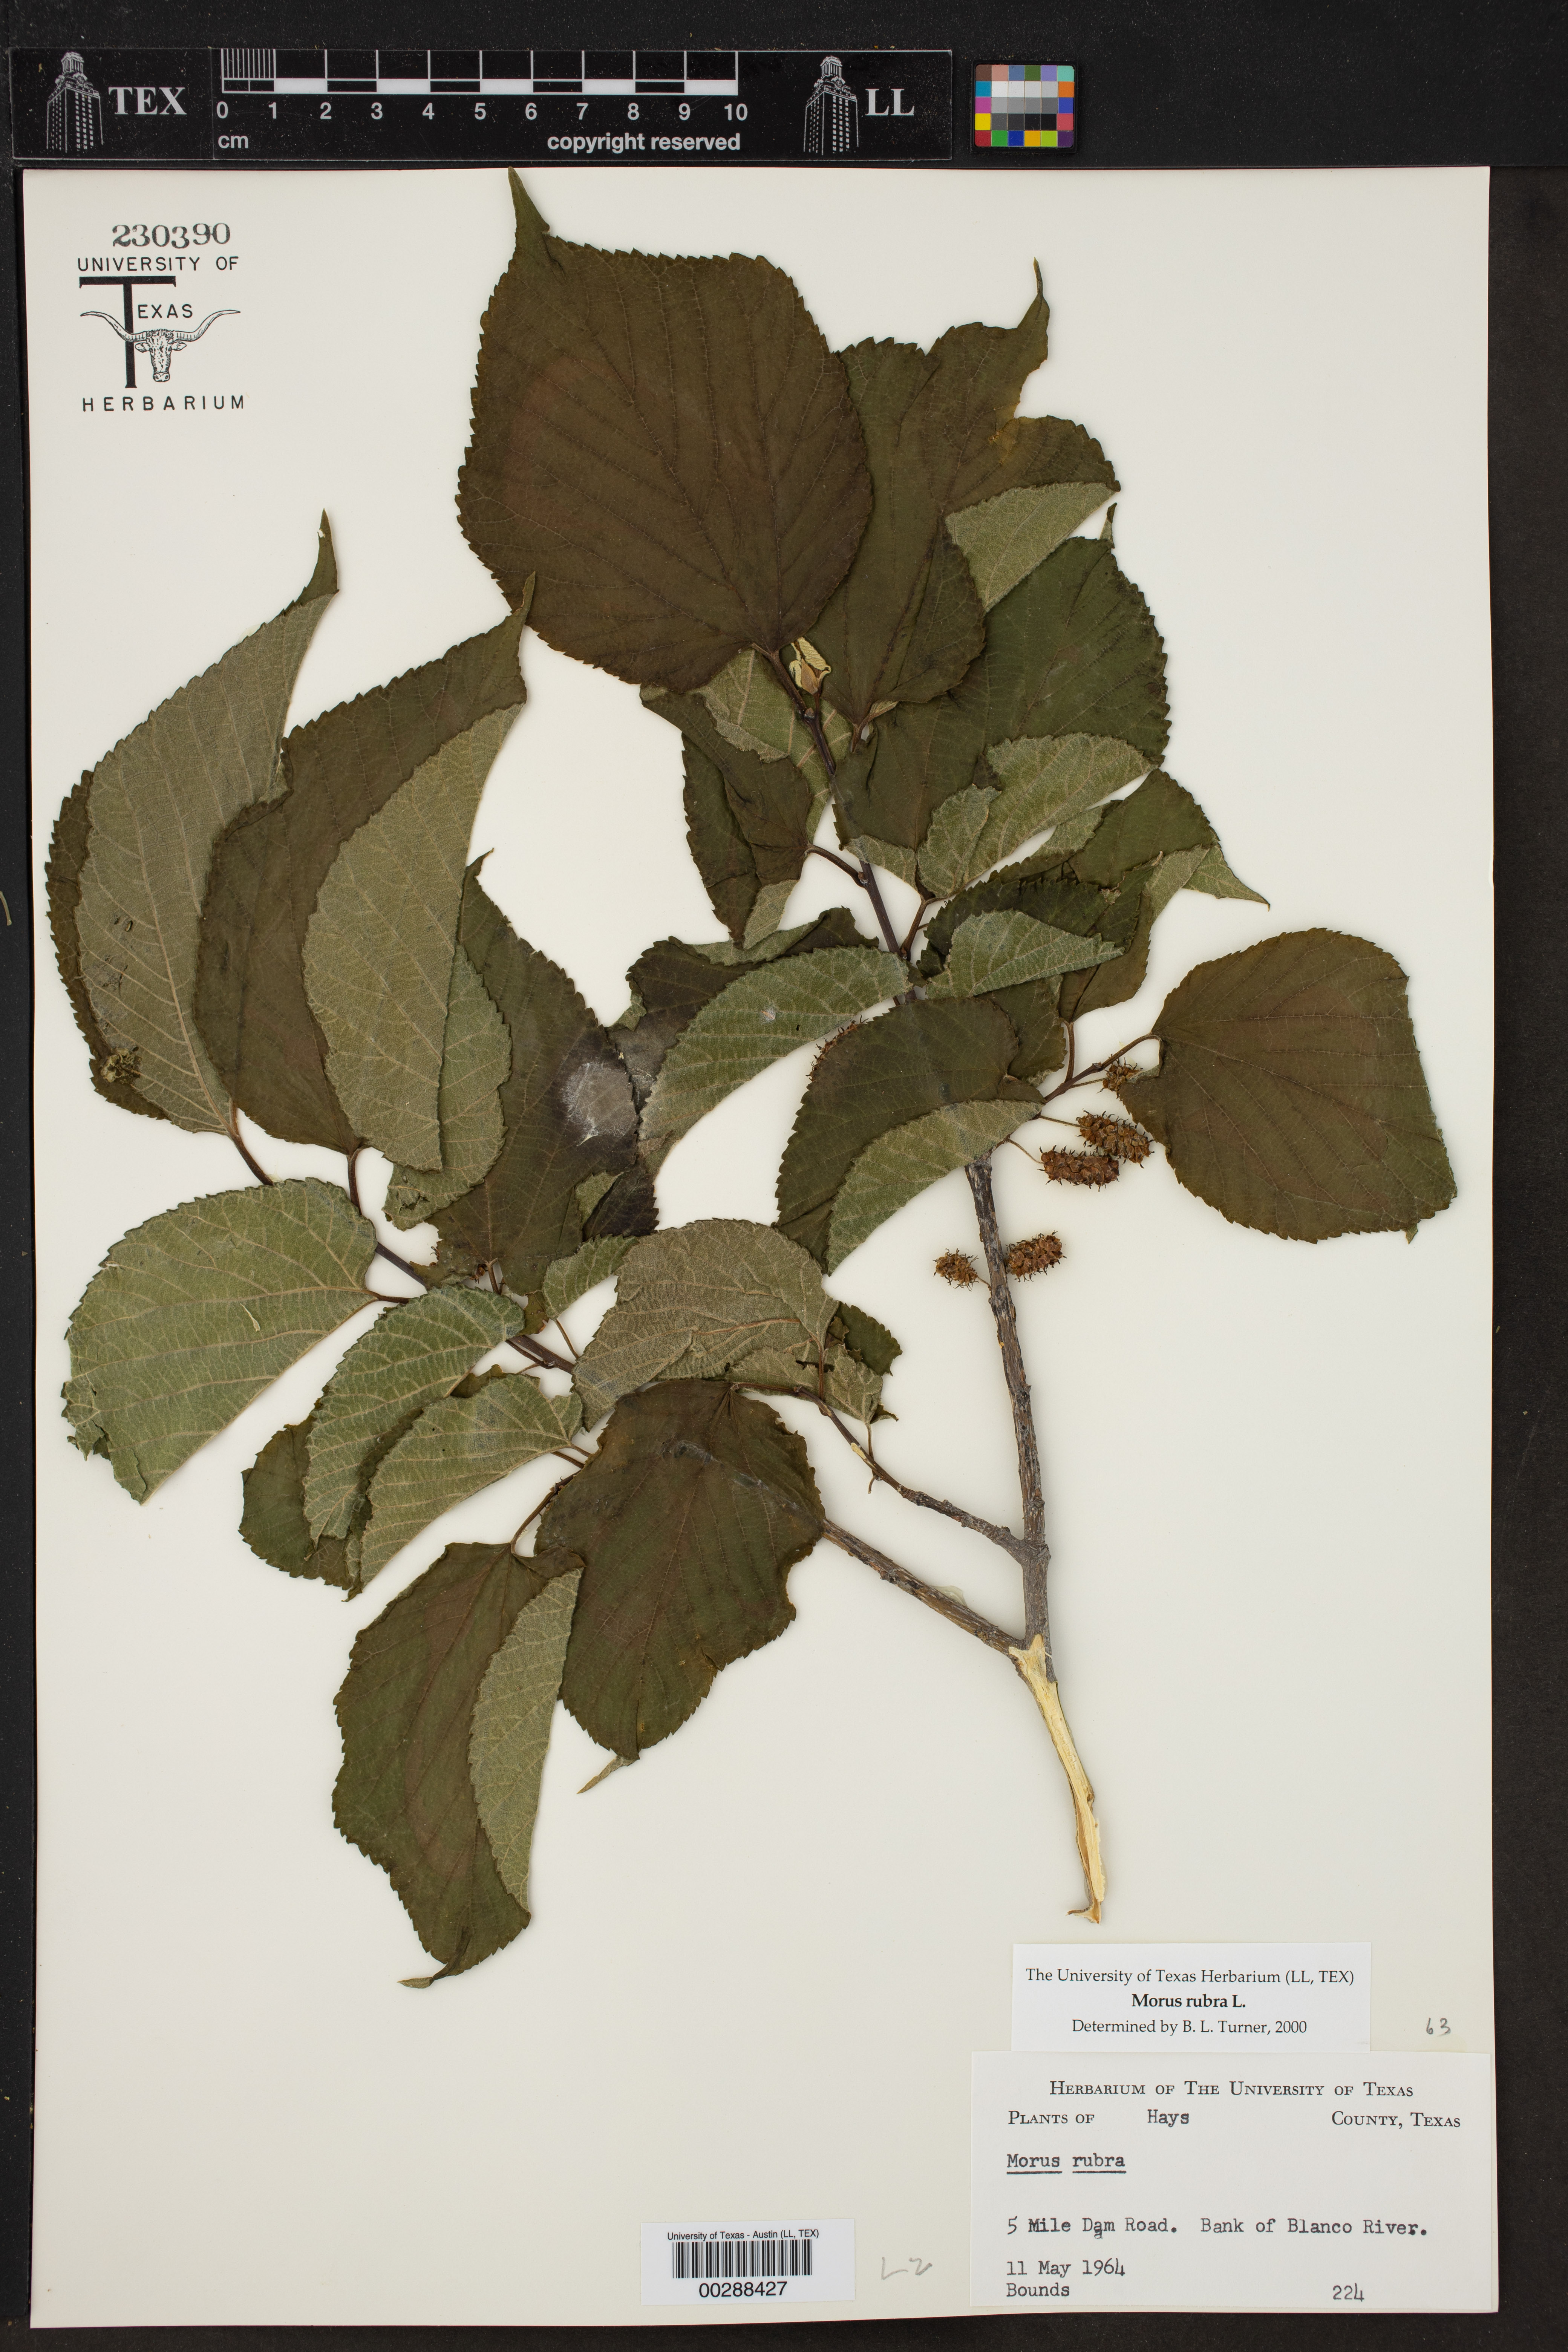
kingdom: Plantae
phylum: Tracheophyta
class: Magnoliopsida
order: Rosales
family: Moraceae
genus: Morus
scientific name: Morus rubra
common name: Red mulberry
